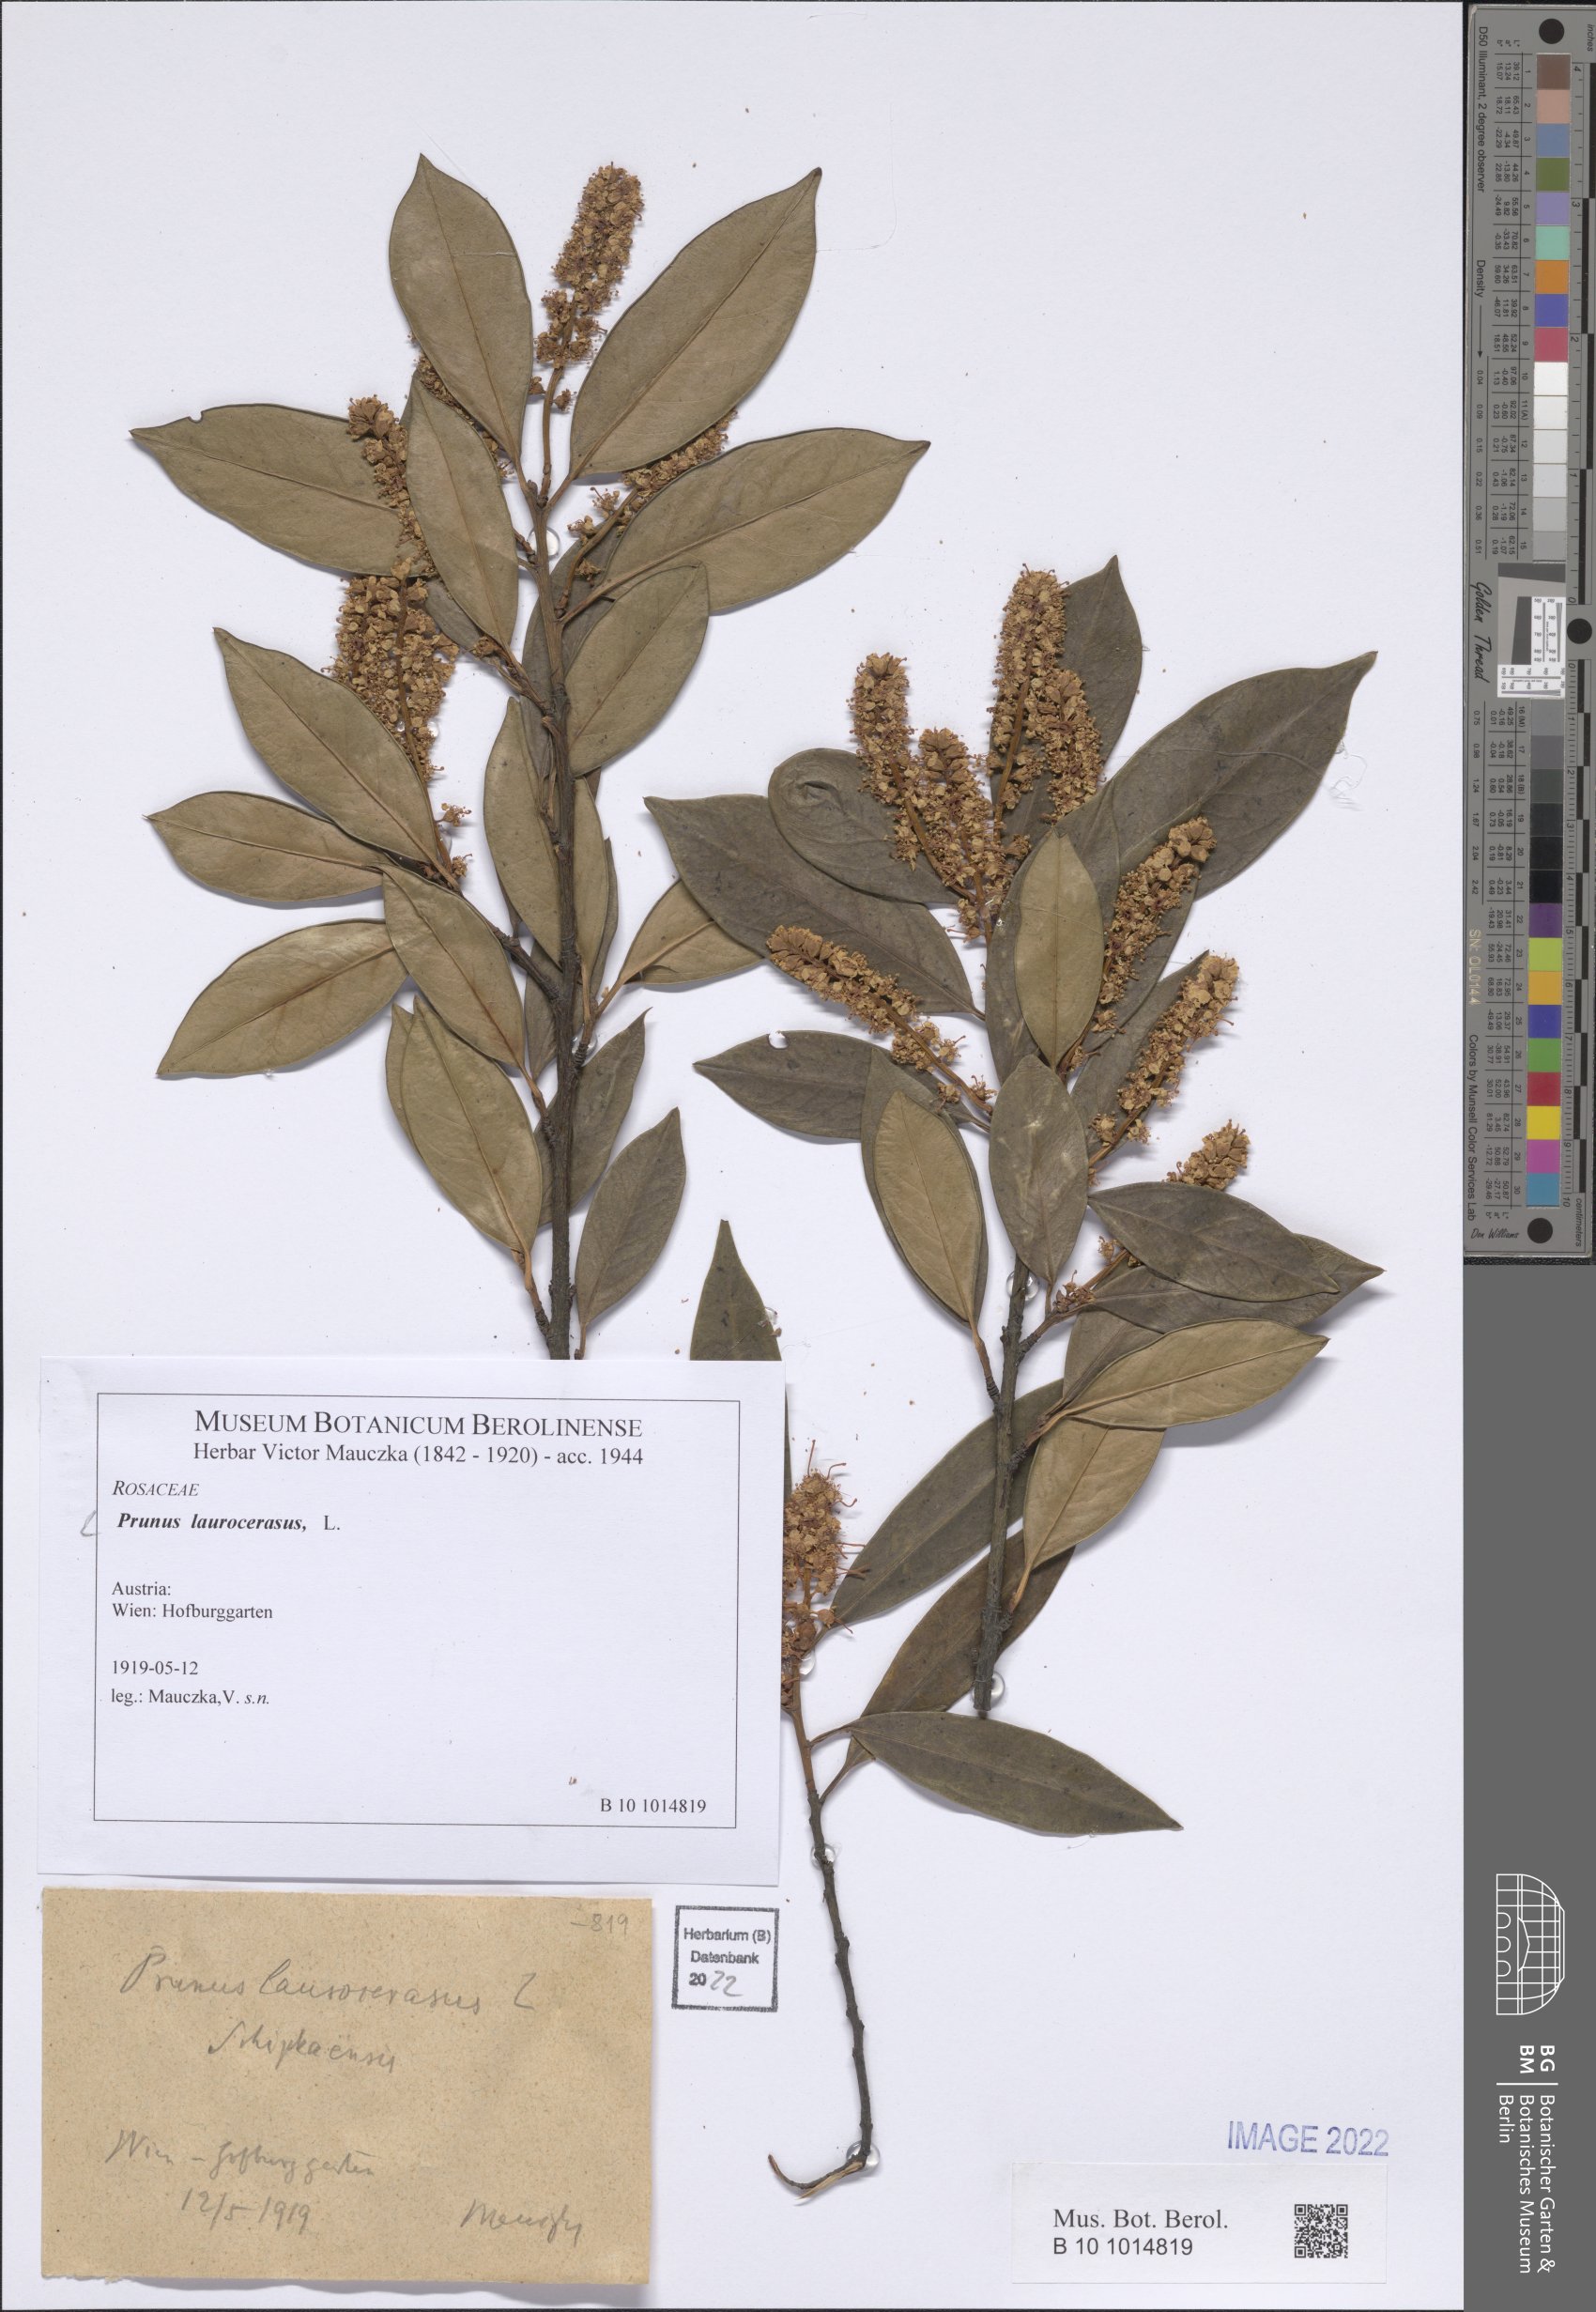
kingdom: Plantae
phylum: Tracheophyta
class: Magnoliopsida
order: Rosales
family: Rosaceae
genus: Prunus
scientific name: Prunus laurocerasus
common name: Cherry laurel
